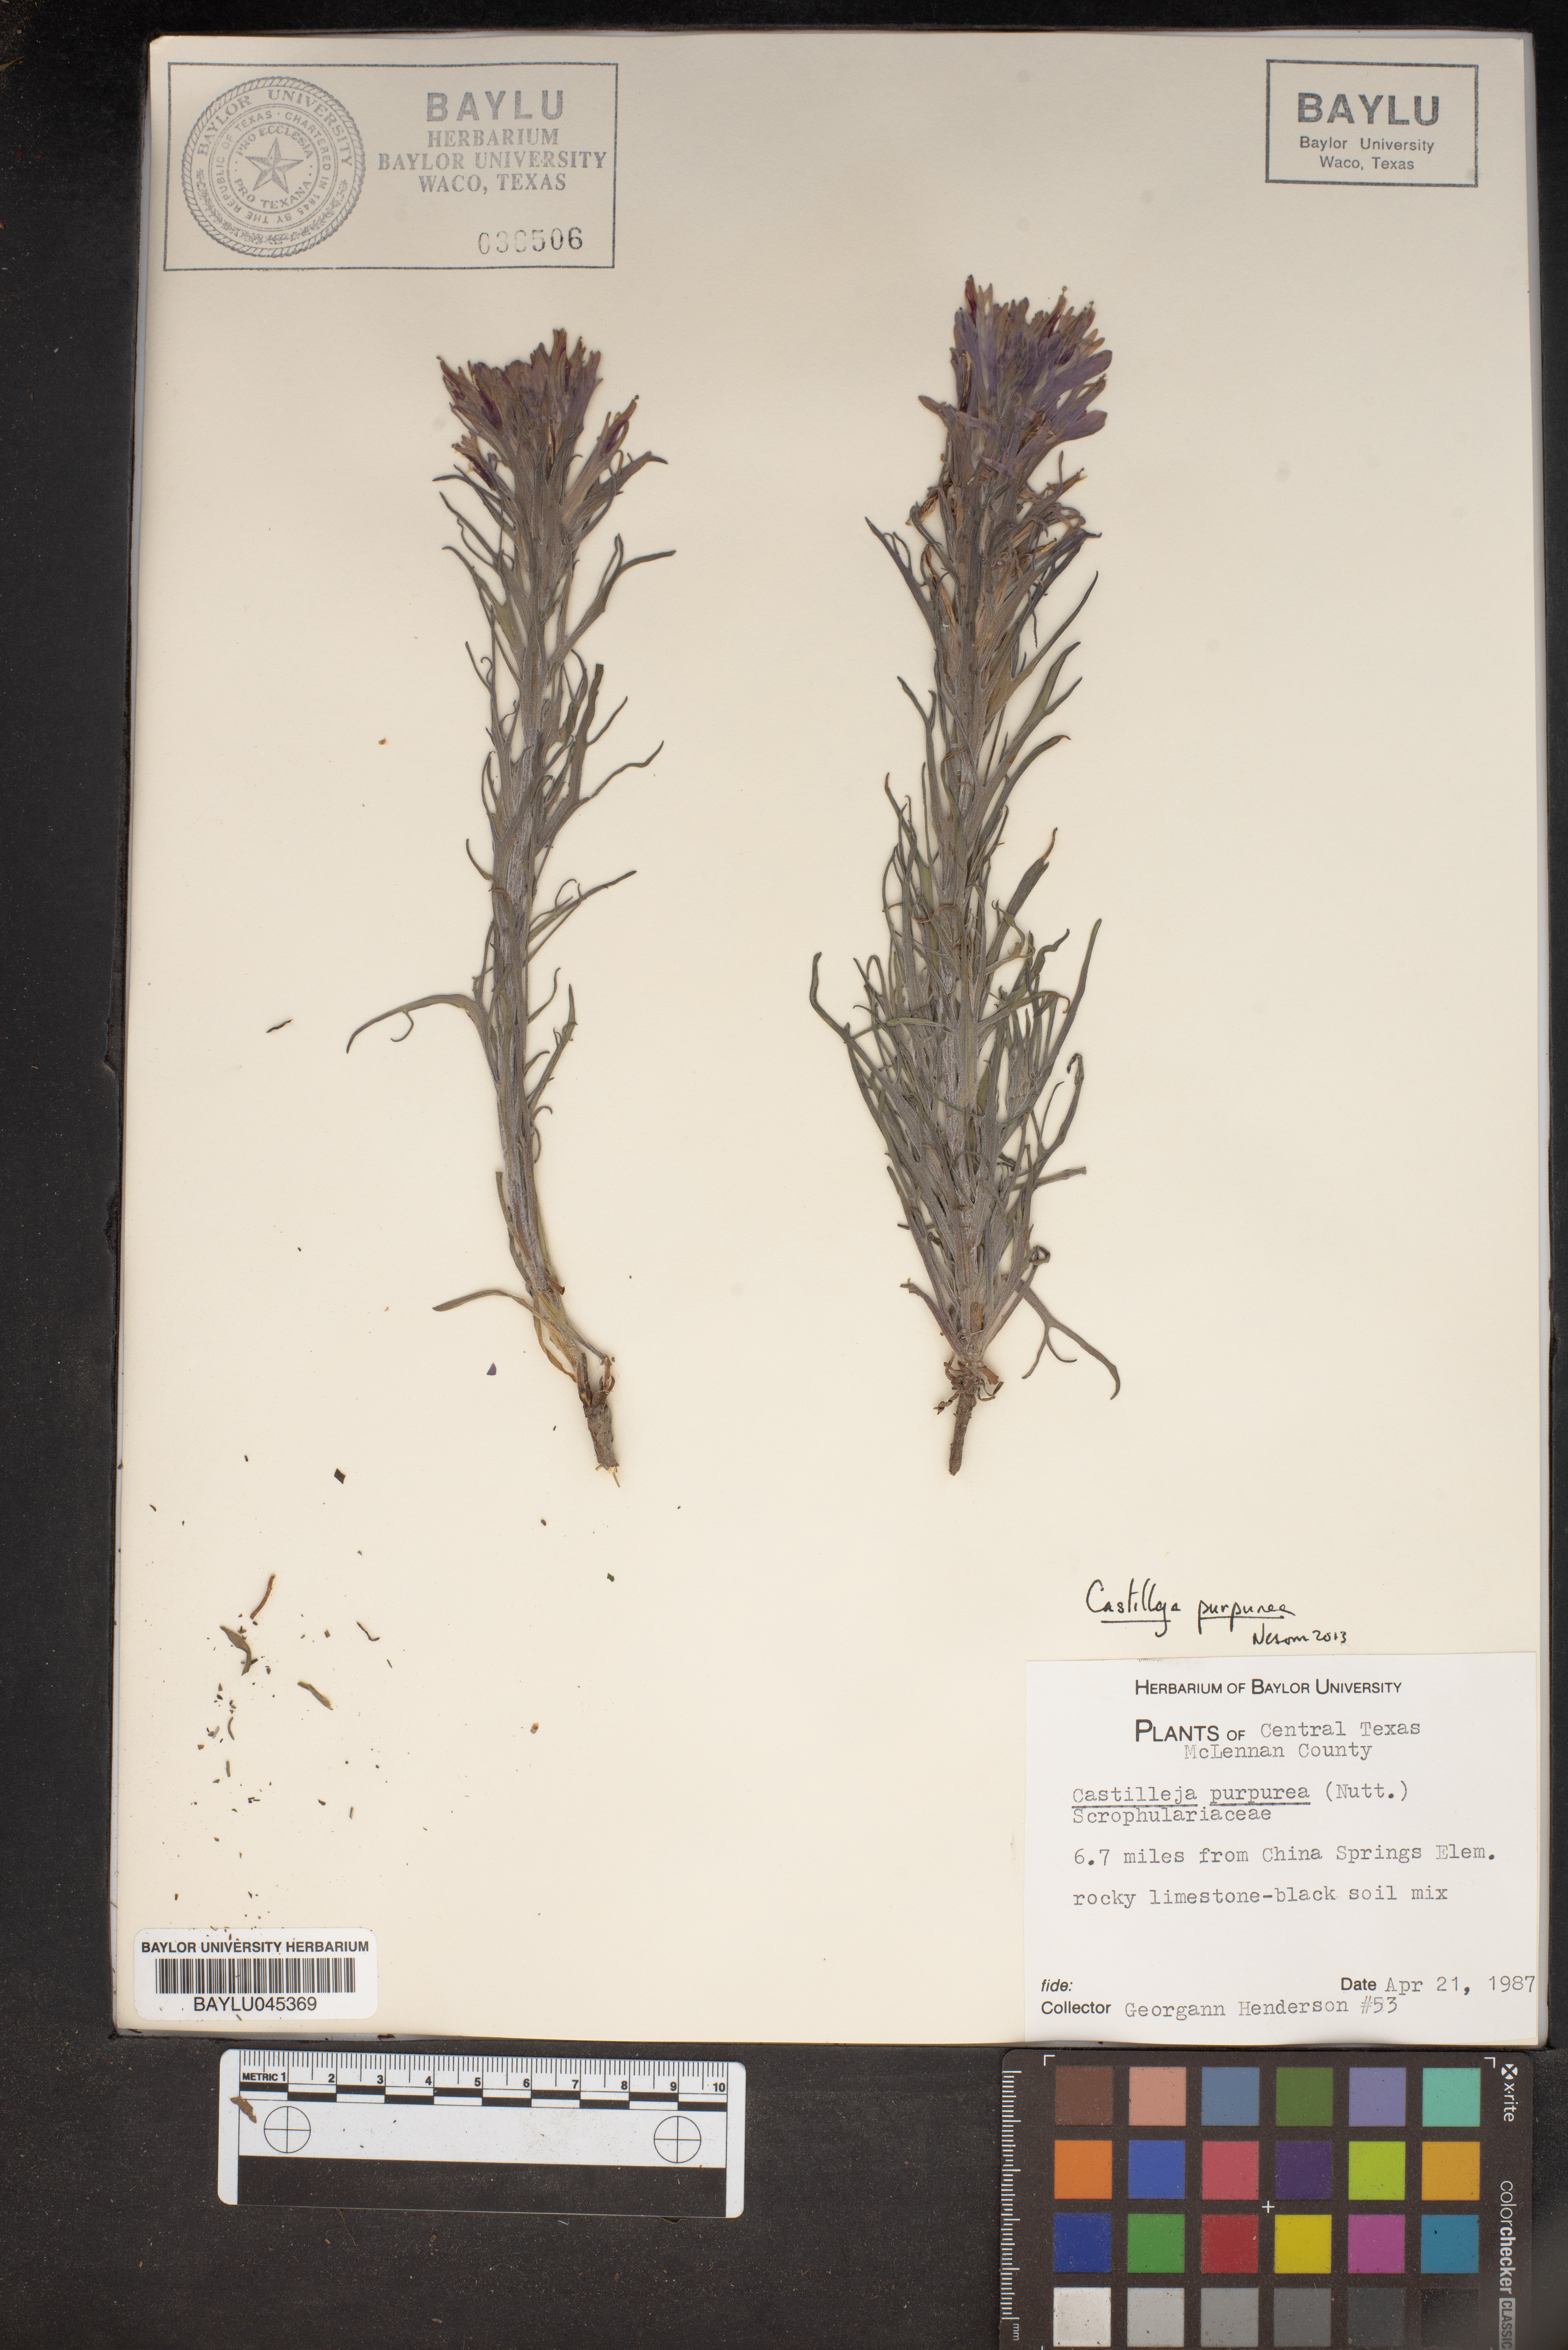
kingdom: Plantae
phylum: Tracheophyta
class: Magnoliopsida
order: Lamiales
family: Orobanchaceae
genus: Castilleja
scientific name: Castilleja purpurea
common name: Plains paintbrush
